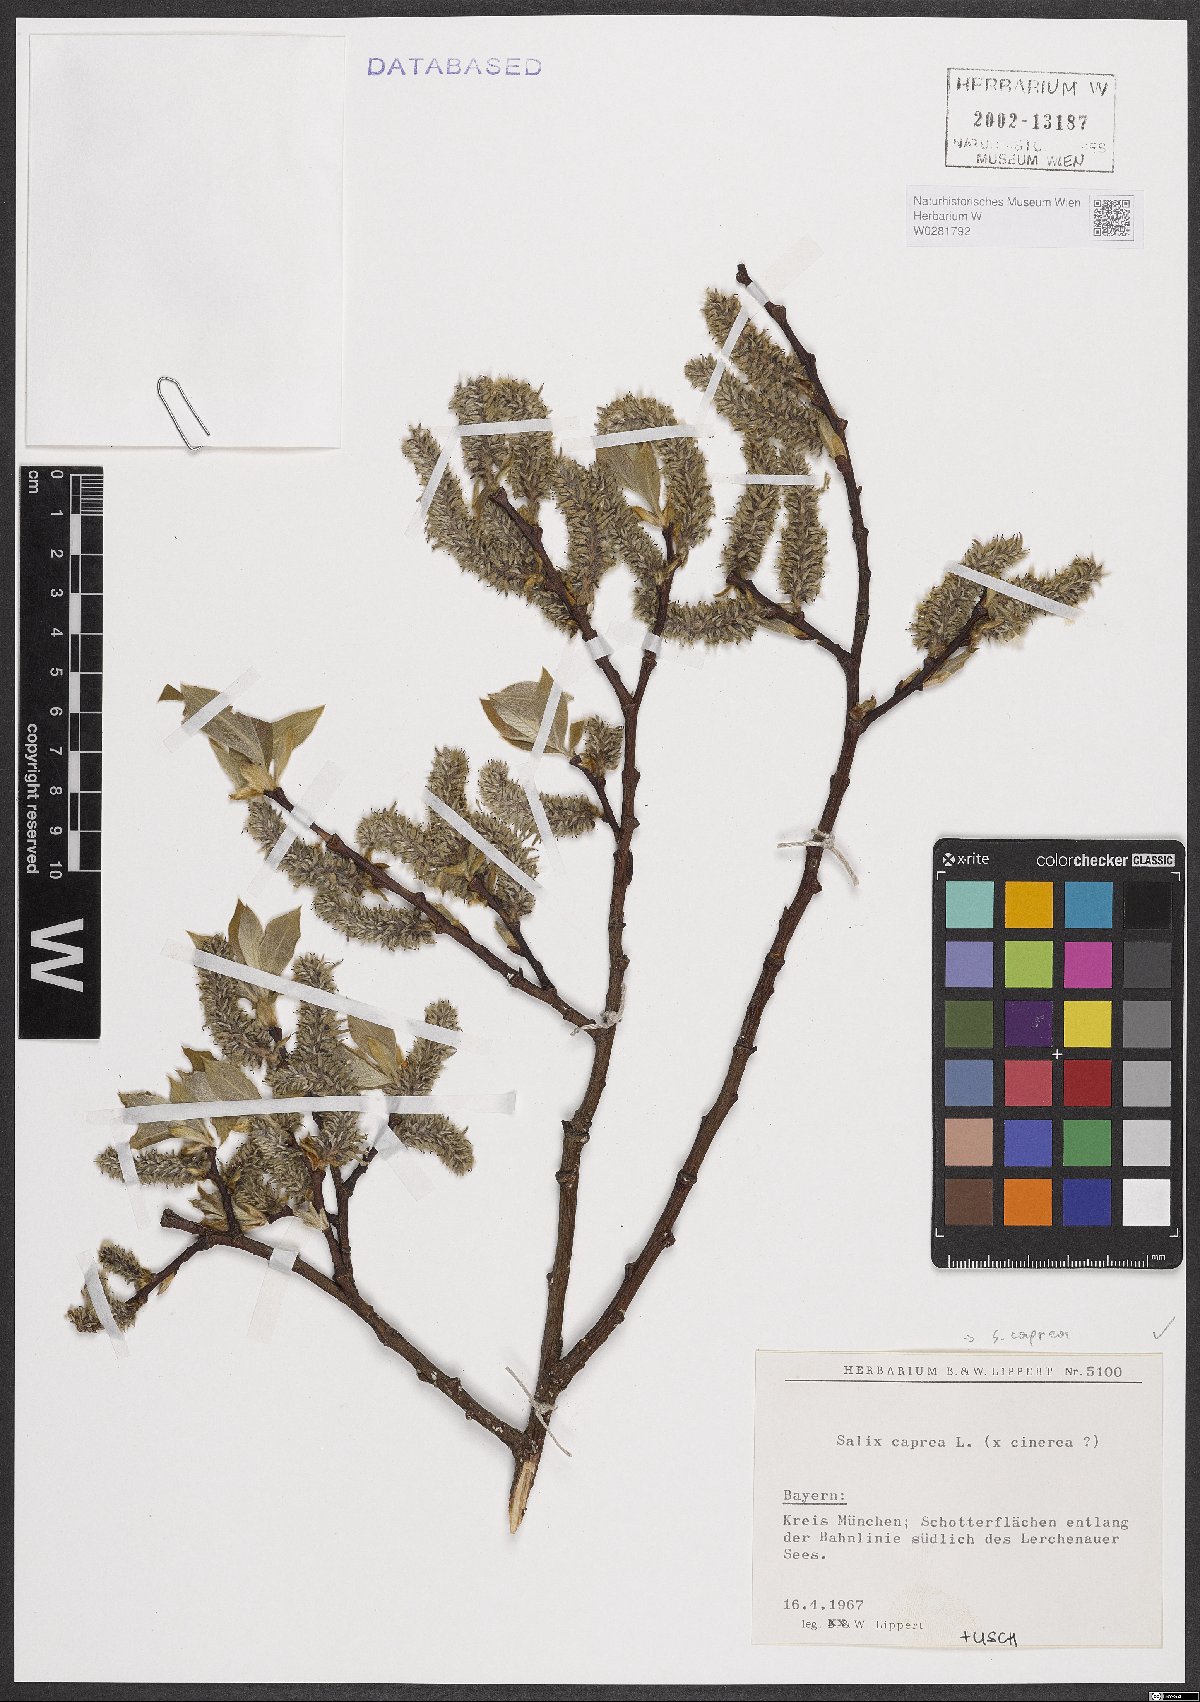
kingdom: Plantae
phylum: Tracheophyta
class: Magnoliopsida
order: Malpighiales
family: Salicaceae
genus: Salix
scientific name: Salix caprea
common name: Goat willow
